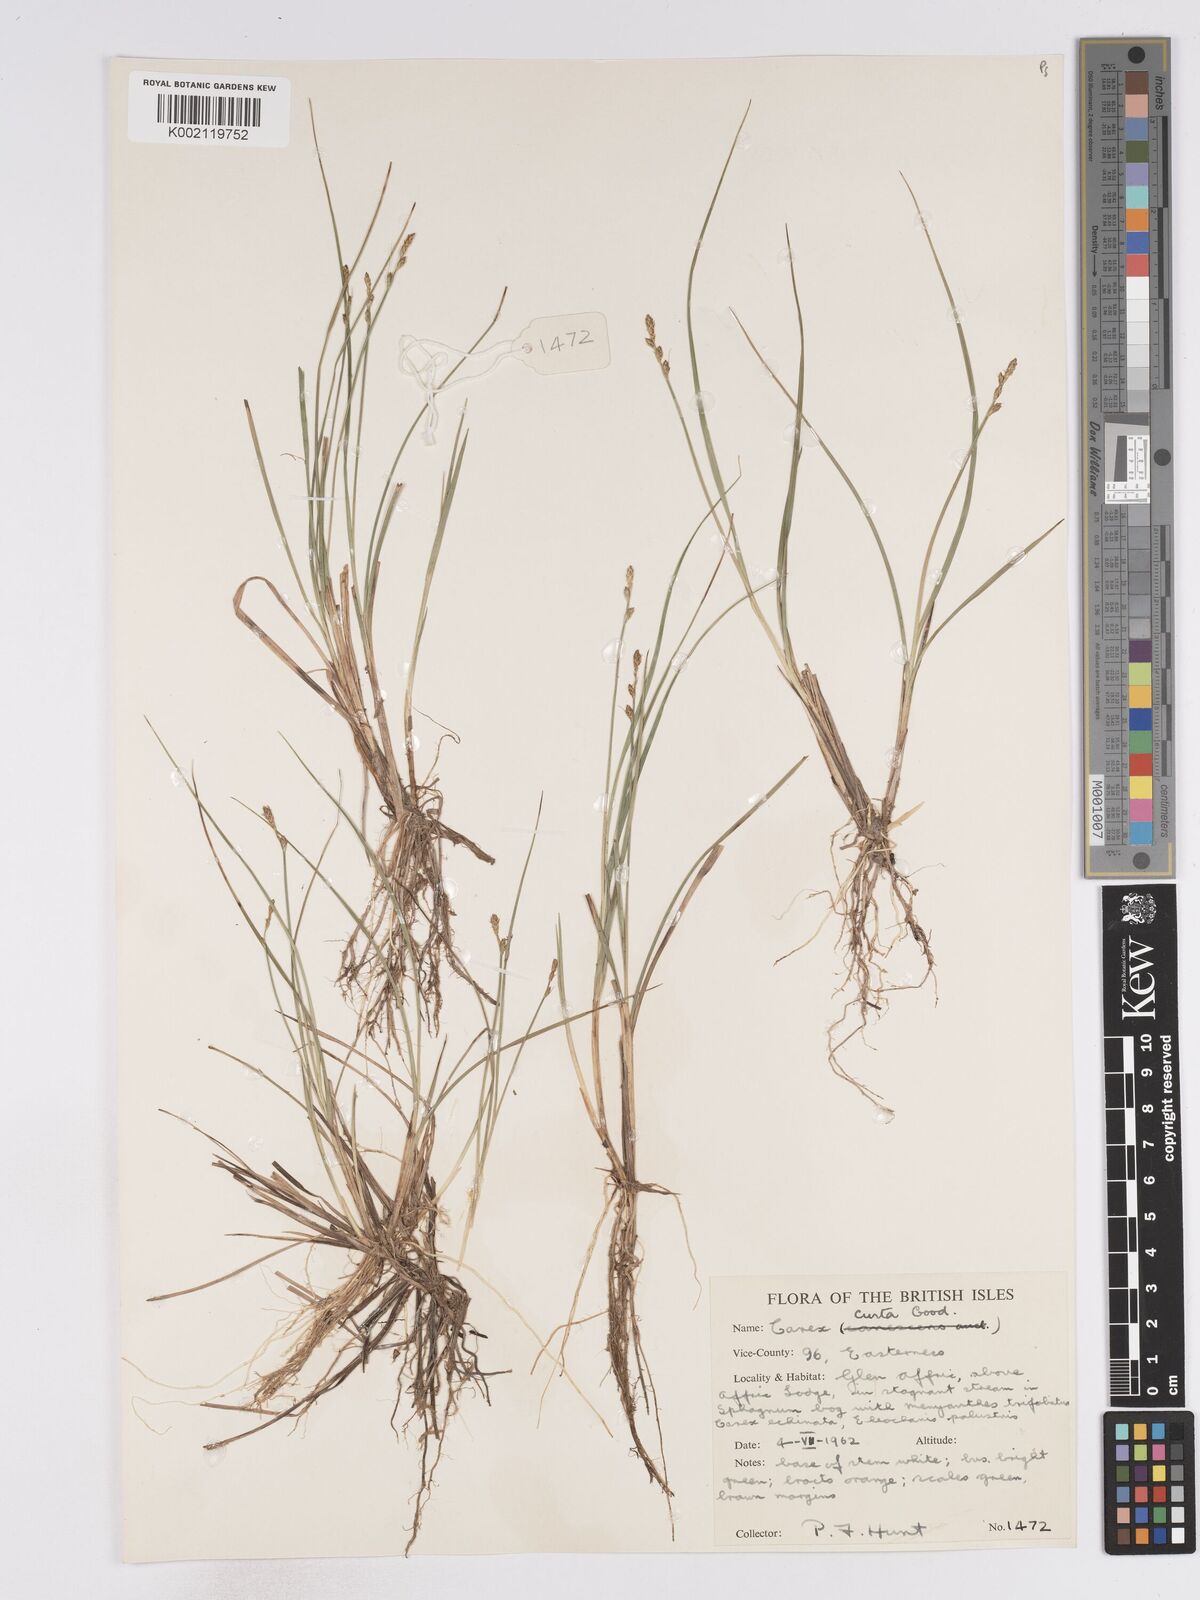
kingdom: Plantae
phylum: Tracheophyta
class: Liliopsida
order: Poales
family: Cyperaceae
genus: Carex
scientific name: Carex curta
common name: White sedge
